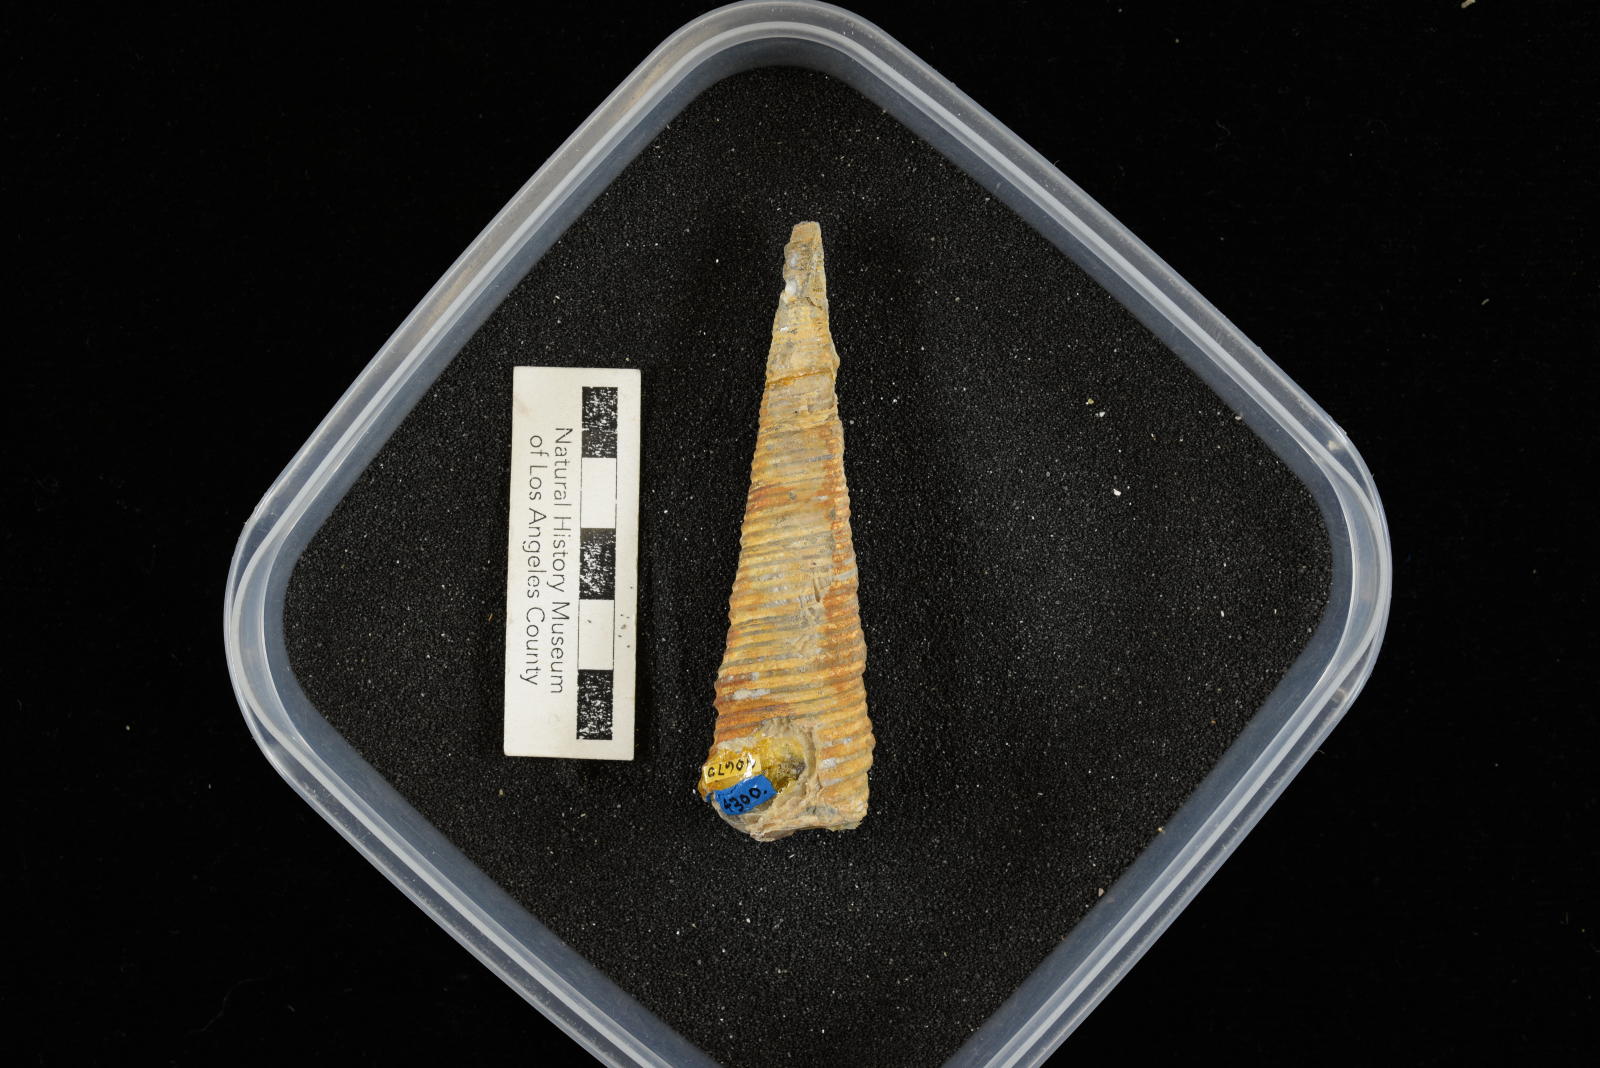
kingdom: Animalia
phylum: Mollusca
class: Gastropoda
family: Turritellidae
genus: Turritella
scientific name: Turritella chicoensis
